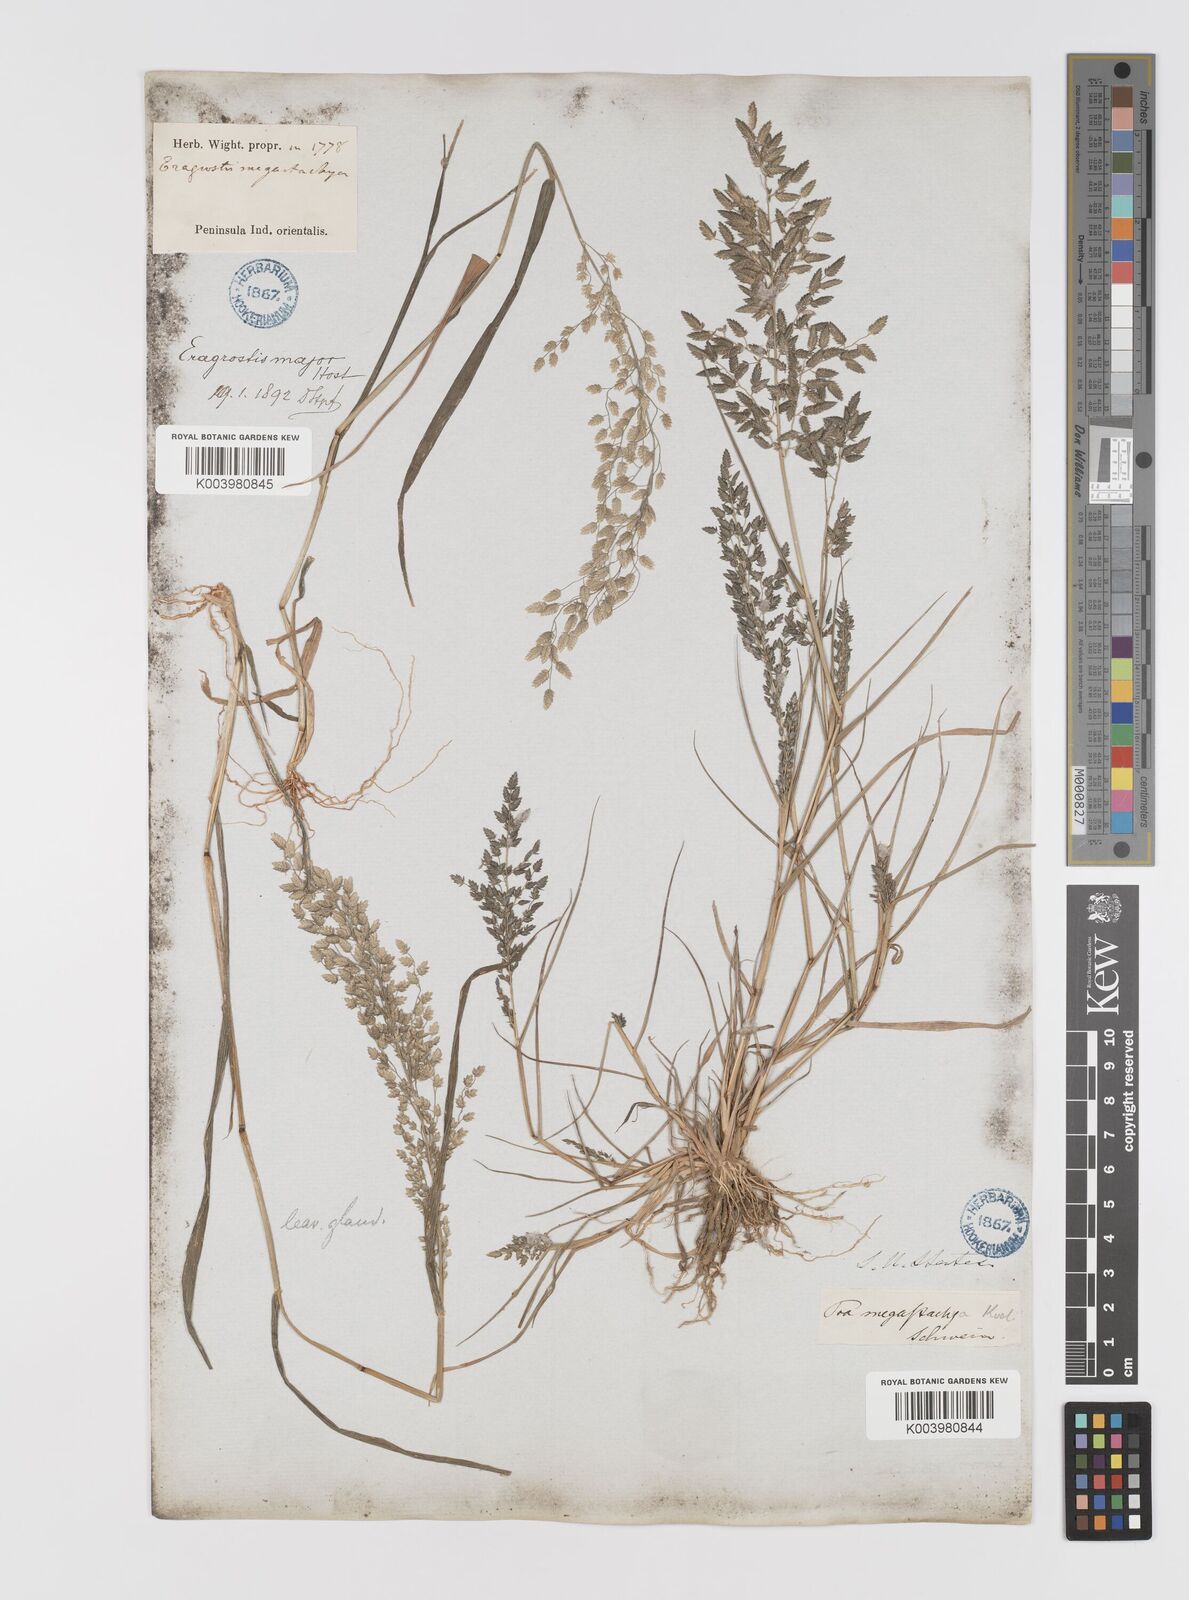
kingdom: Plantae
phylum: Tracheophyta
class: Liliopsida
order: Poales
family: Poaceae
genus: Eragrostis
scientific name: Eragrostis cilianensis
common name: Stinkgrass
